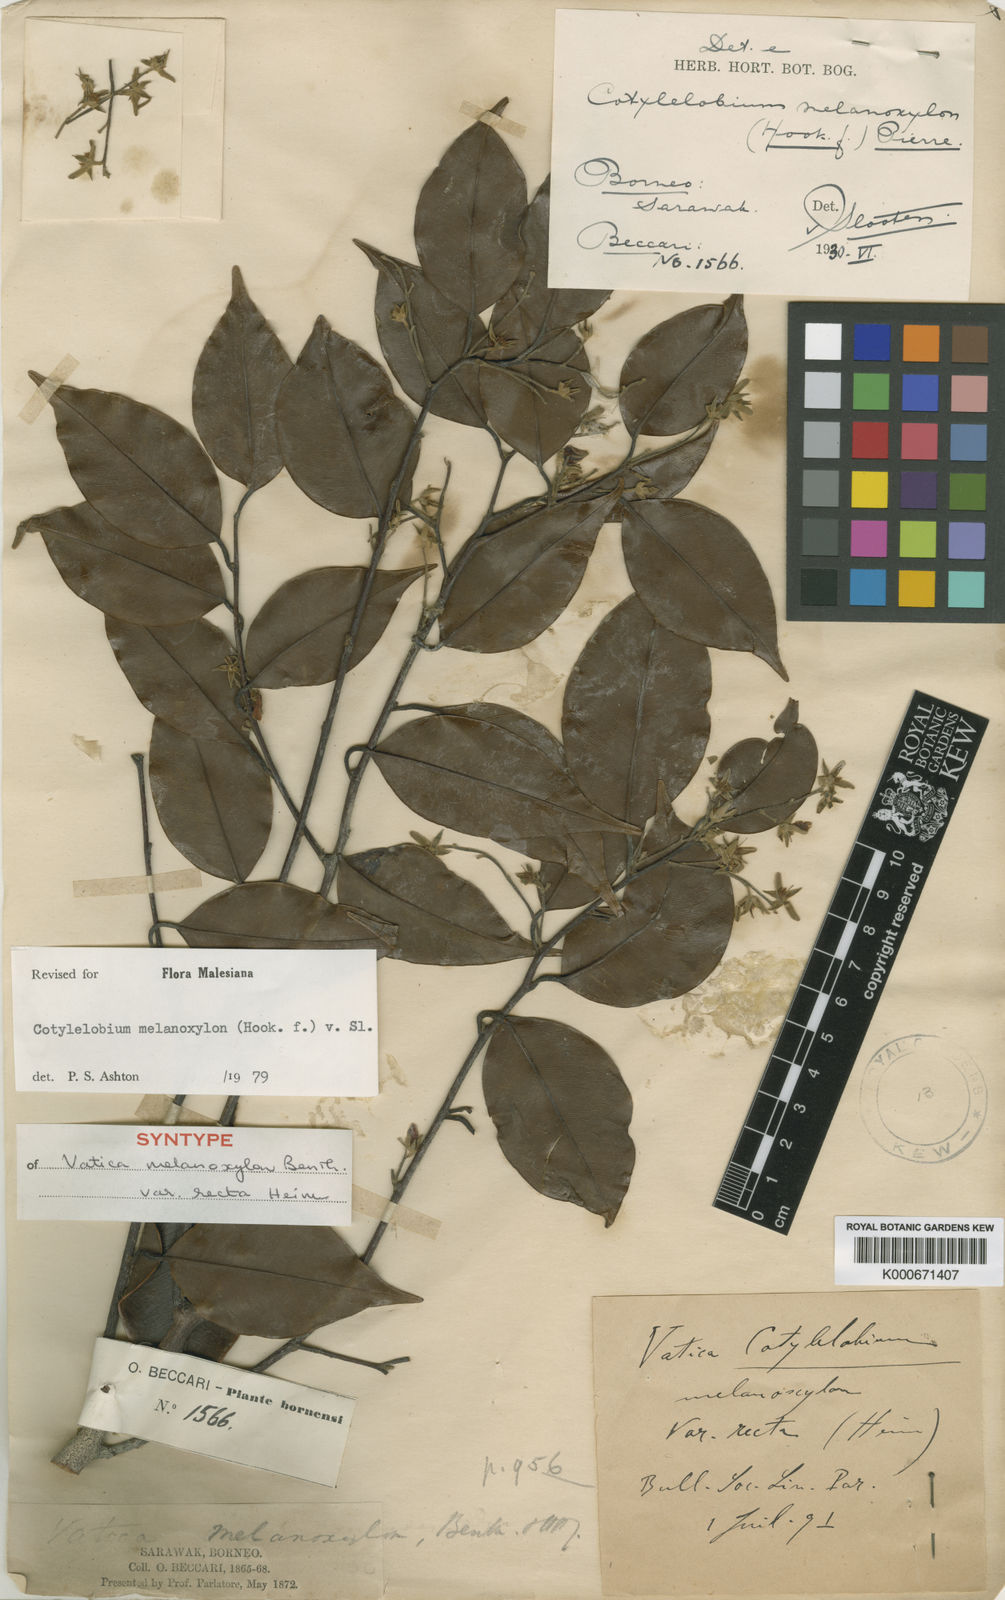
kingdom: Plantae
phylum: Tracheophyta
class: Magnoliopsida
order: Malvales
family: Dipterocarpaceae
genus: Cotylelobium
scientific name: Cotylelobium melanoxylon
